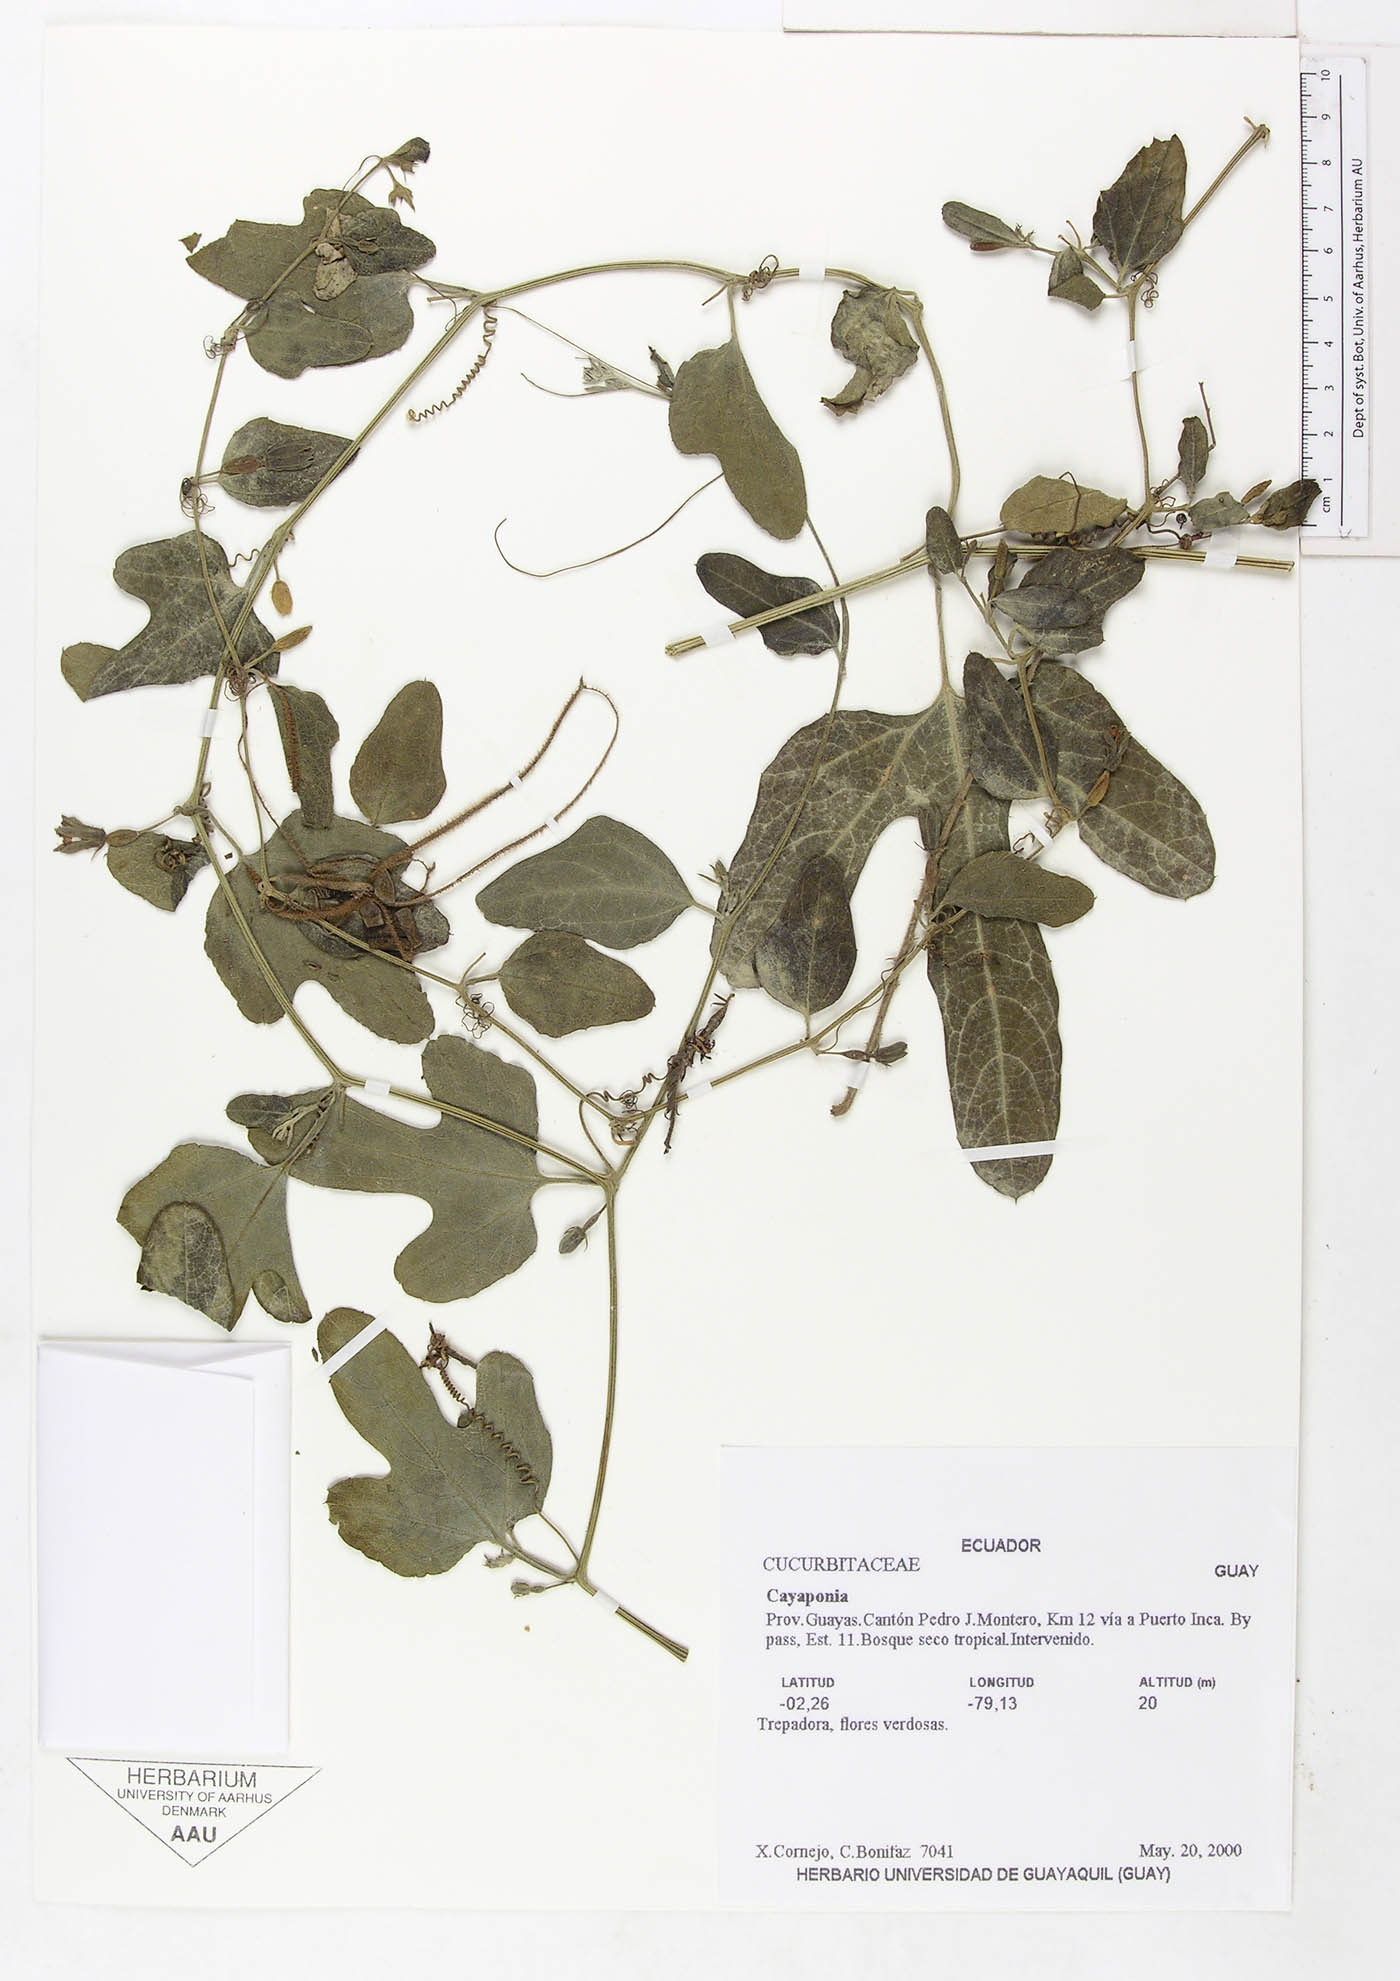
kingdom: Plantae
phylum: Tracheophyta
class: Magnoliopsida
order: Cucurbitales
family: Cucurbitaceae
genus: Cayaponia
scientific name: Cayaponia podantha
